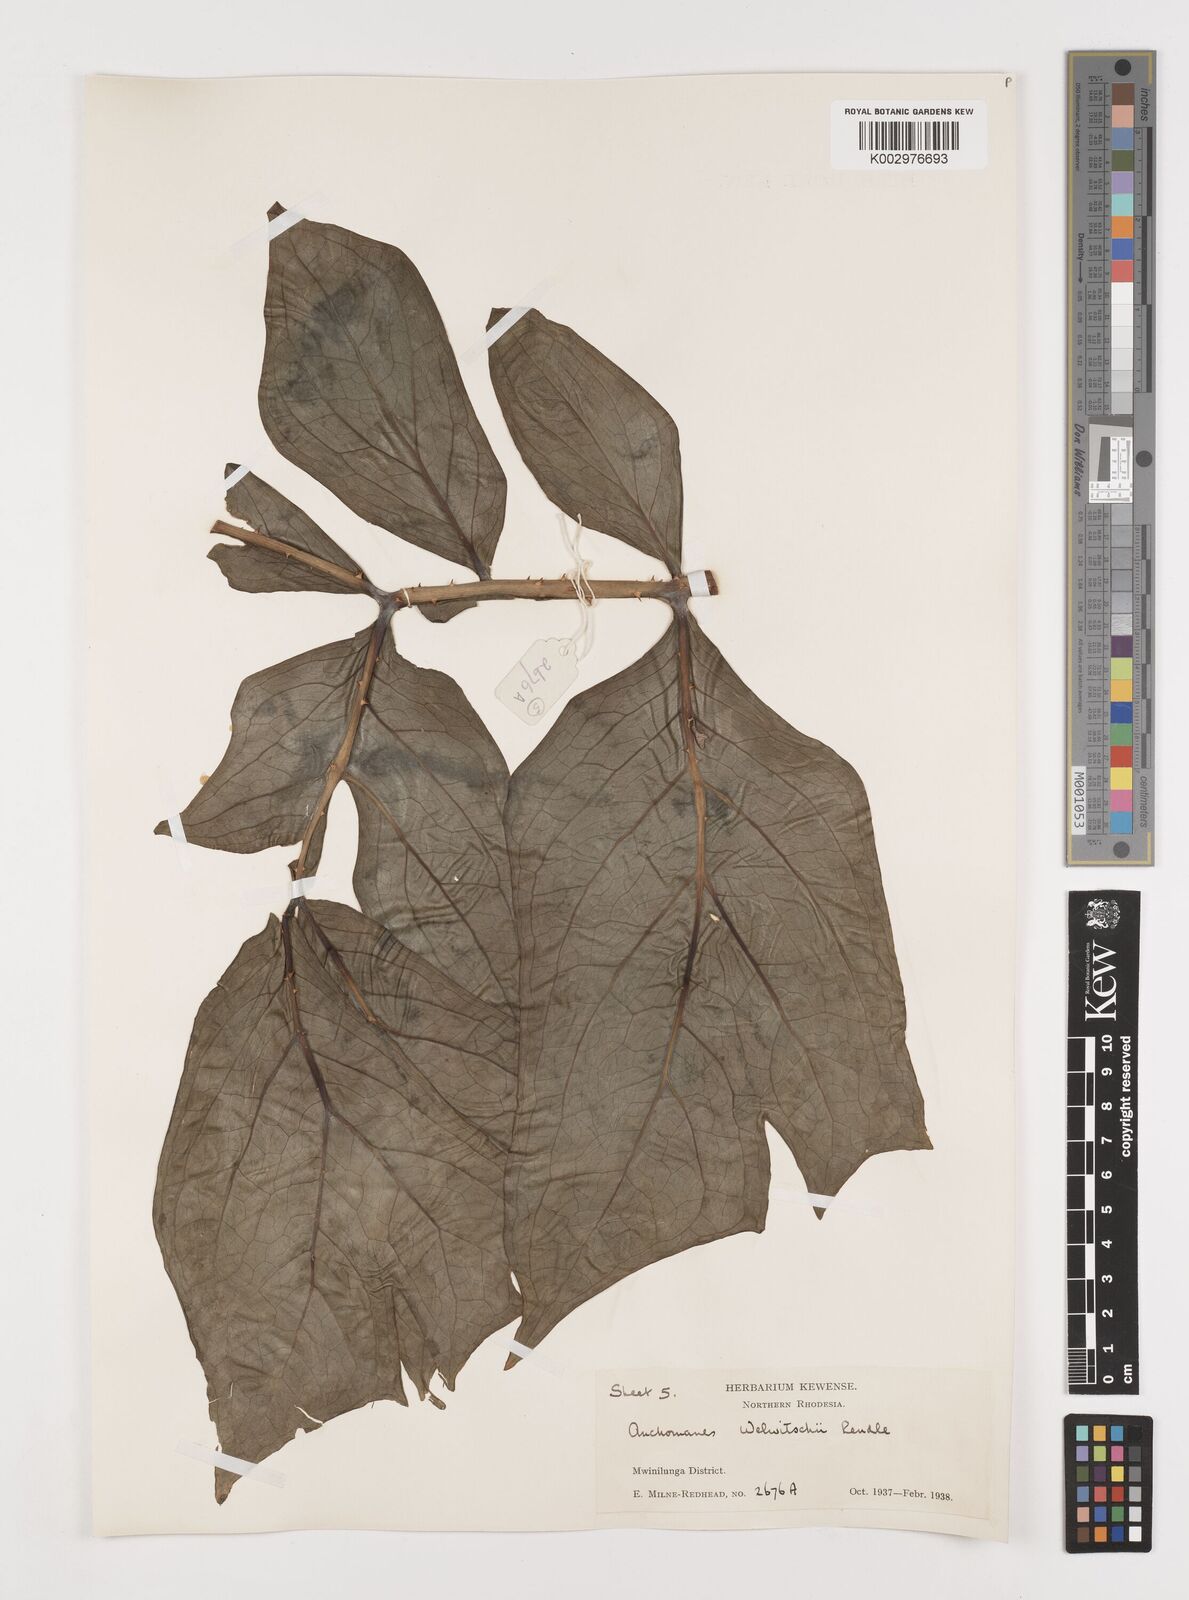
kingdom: Plantae
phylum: Tracheophyta
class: Liliopsida
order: Alismatales
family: Araceae
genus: Anchomanes
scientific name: Anchomanes difformis
